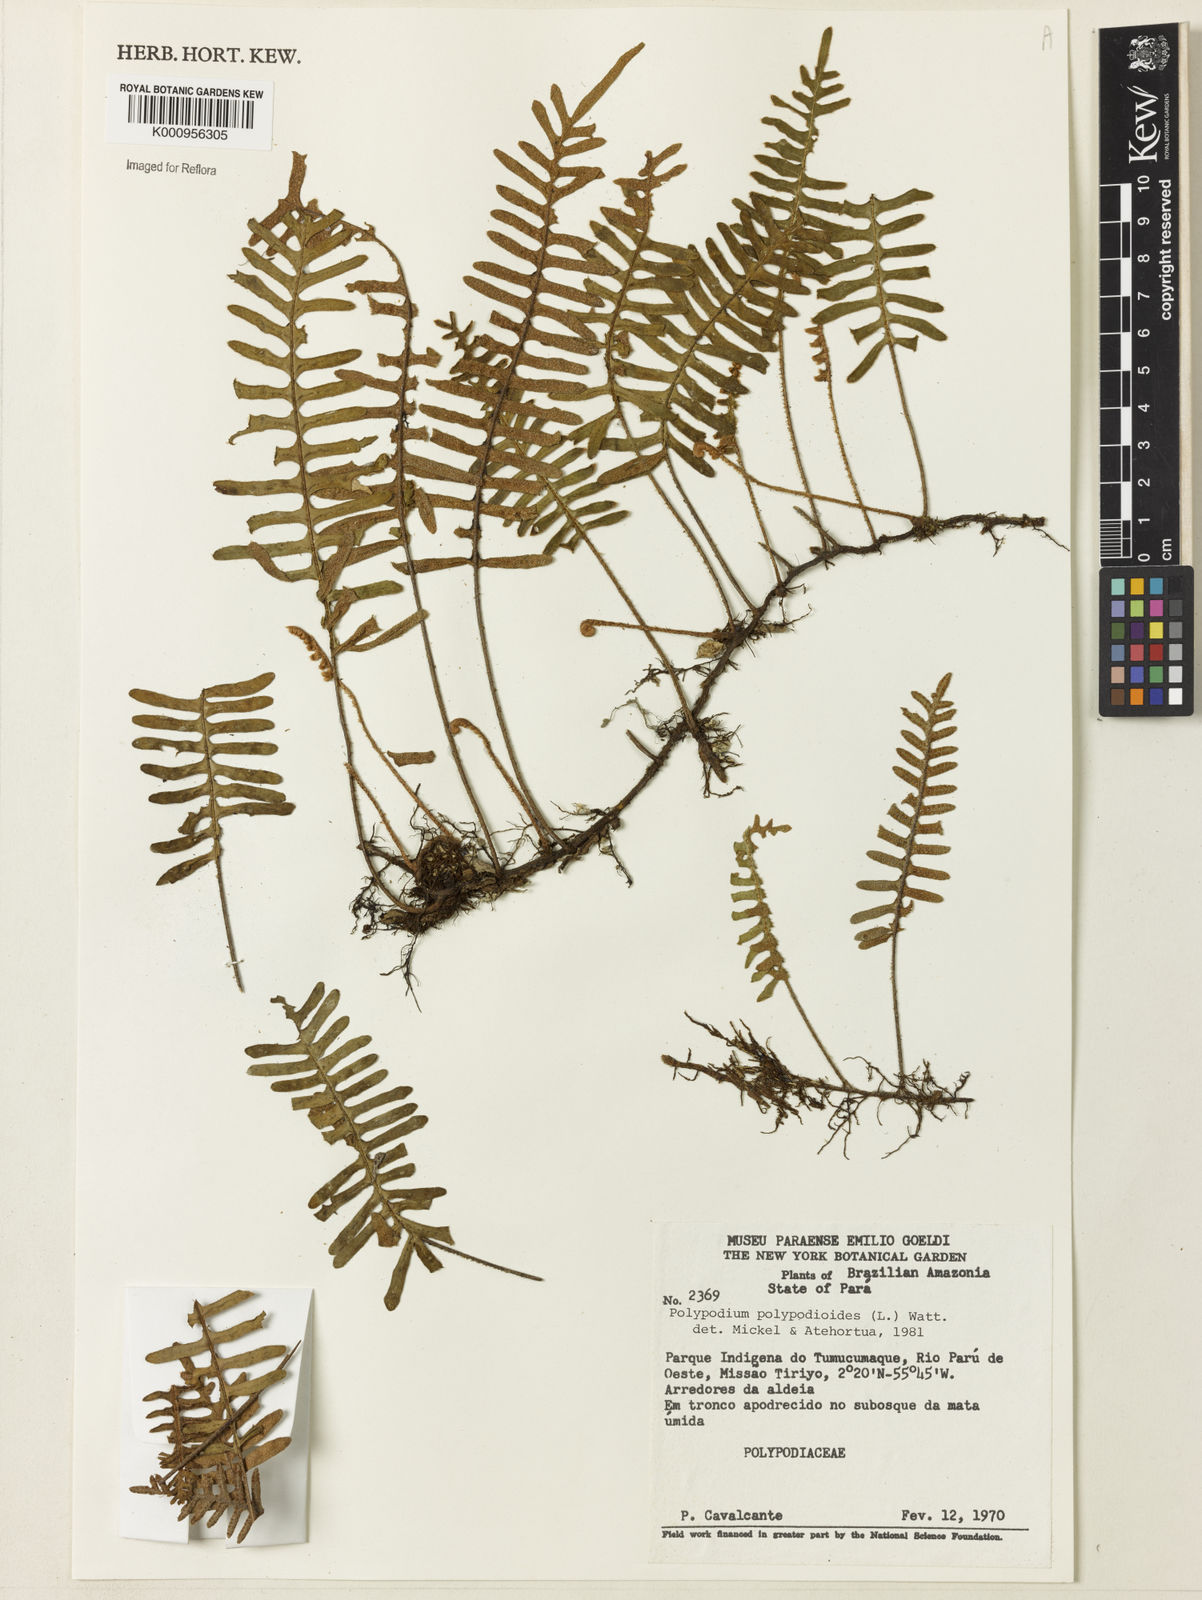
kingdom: Plantae
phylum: Tracheophyta
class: Polypodiopsida
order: Polypodiales
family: Polypodiaceae
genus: Pleopeltis
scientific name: Pleopeltis polypodioides
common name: Resurrection fern
